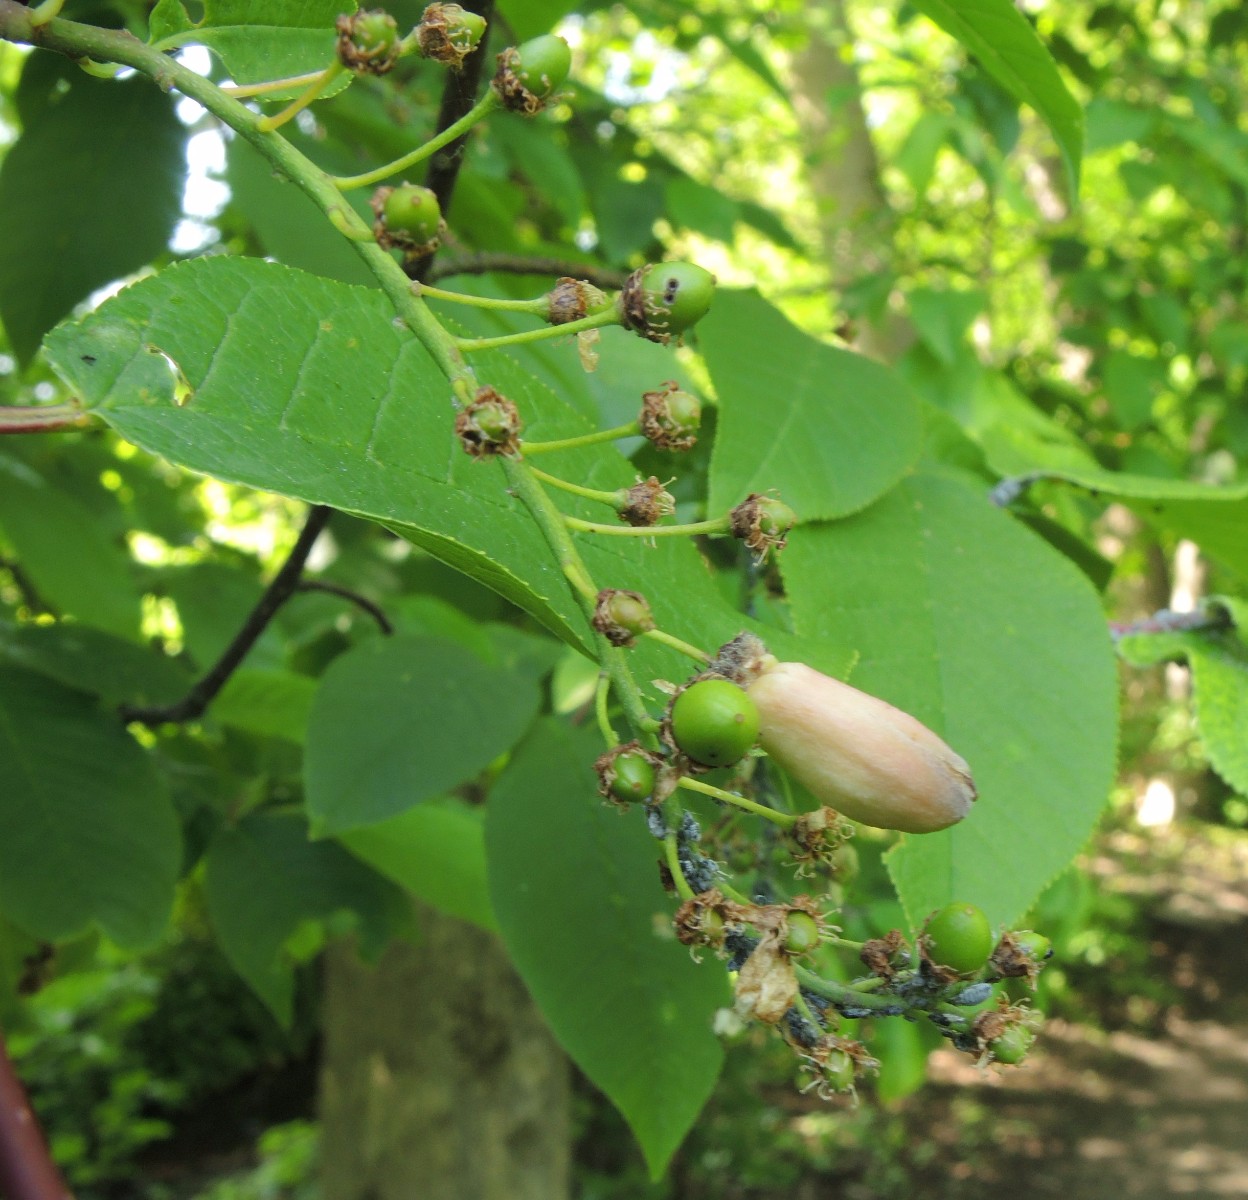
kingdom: Fungi
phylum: Ascomycota
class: Taphrinomycetes
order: Taphrinales
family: Taphrinaceae
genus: Taphrina
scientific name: Taphrina padi
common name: Bird cherry pocket
